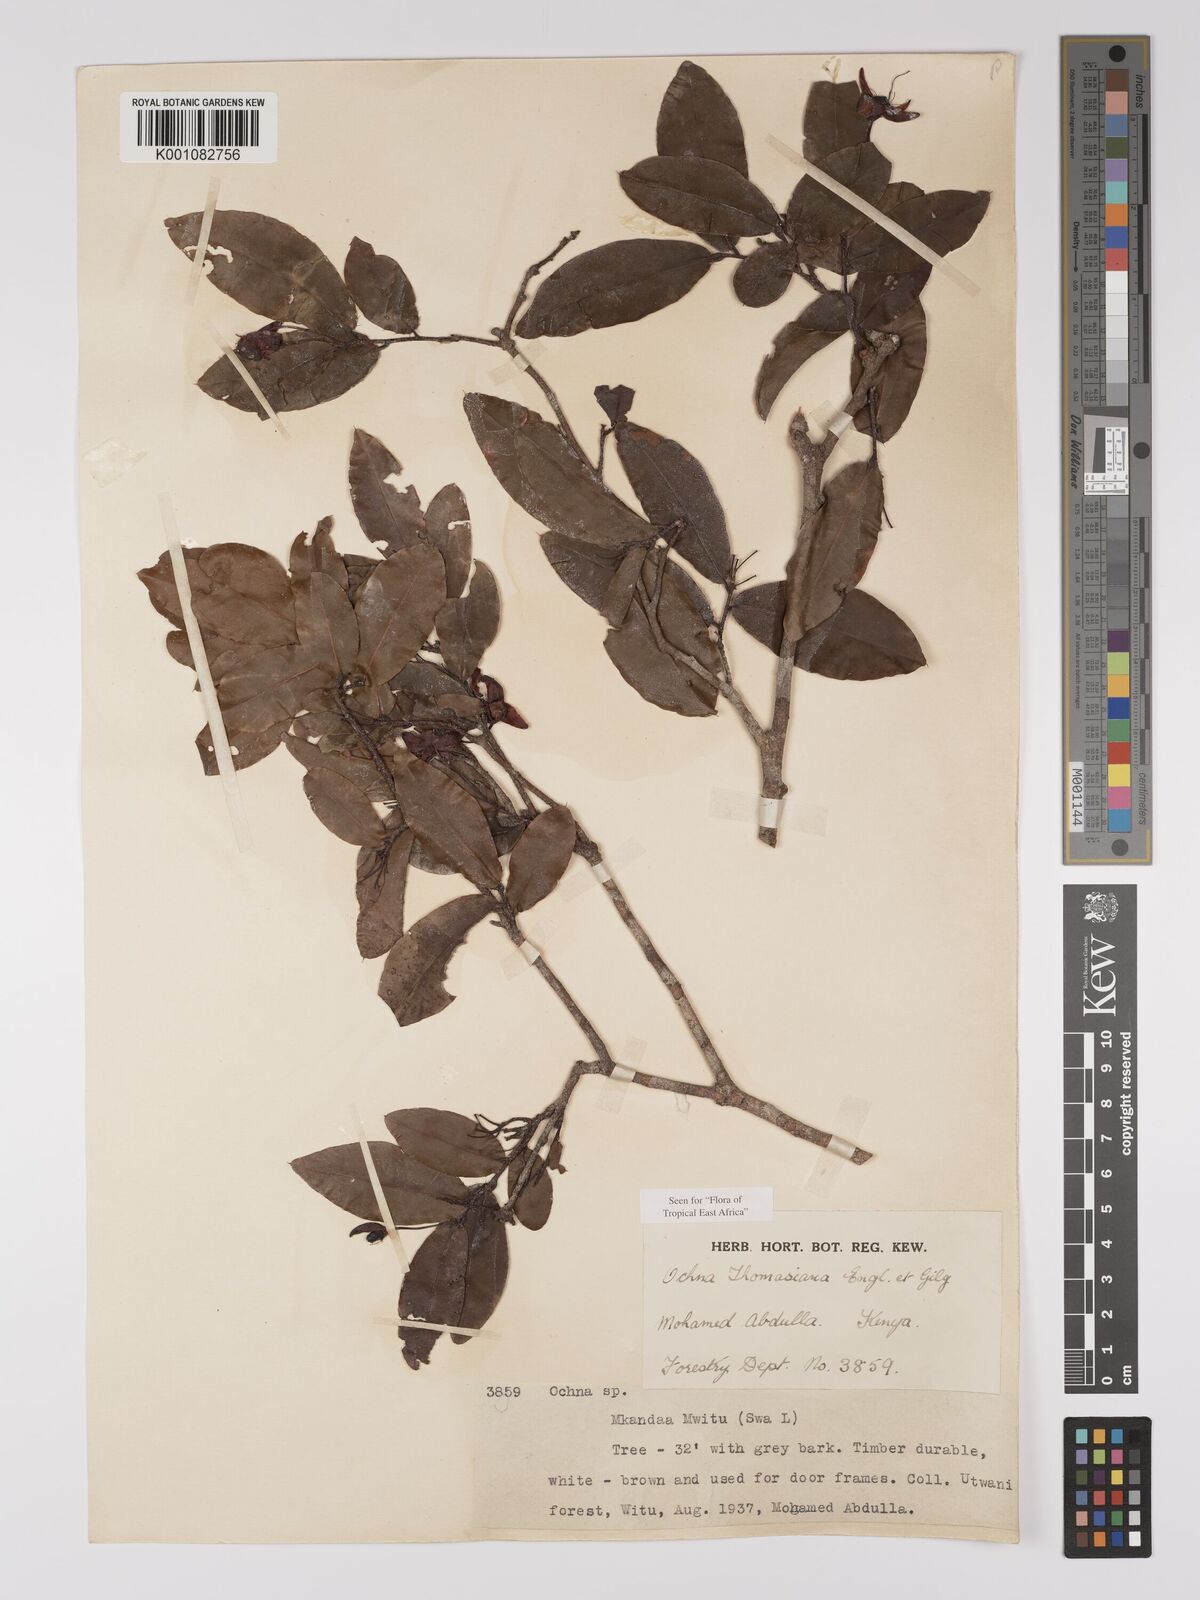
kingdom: Plantae
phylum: Tracheophyta
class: Magnoliopsida
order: Malpighiales
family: Ochnaceae
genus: Ochna
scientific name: Ochna thomasiana
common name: Thomas' bird's-eye bush
